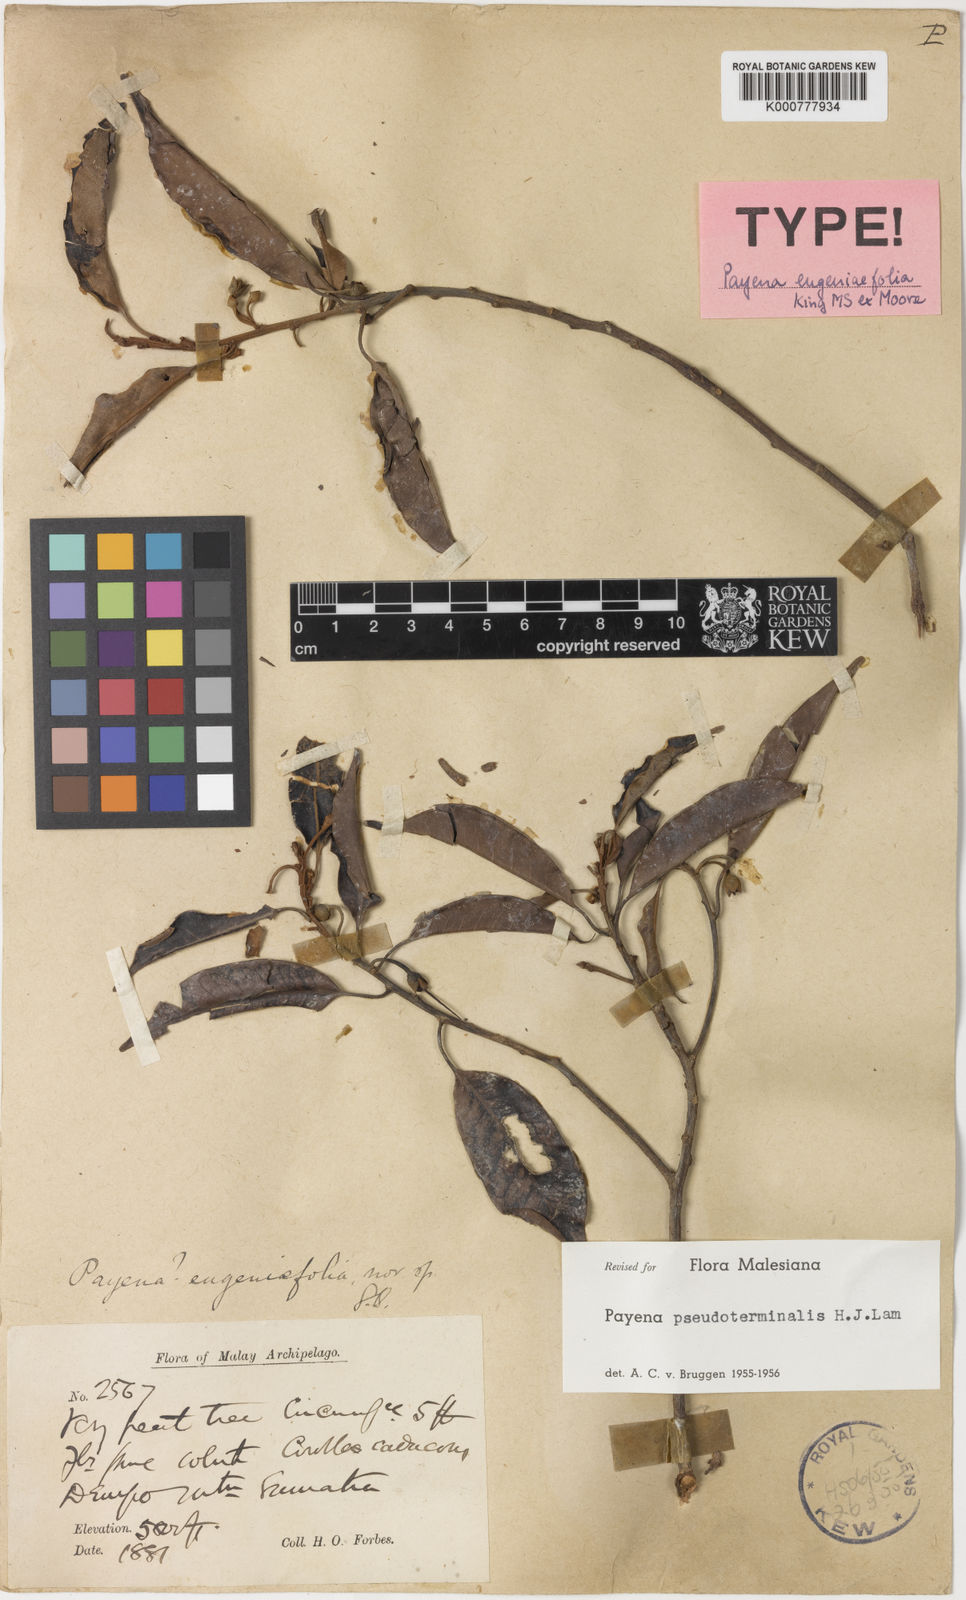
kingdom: Plantae
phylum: Tracheophyta
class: Magnoliopsida
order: Ericales
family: Sapotaceae
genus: Payena
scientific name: Payena pseudoterminalis
